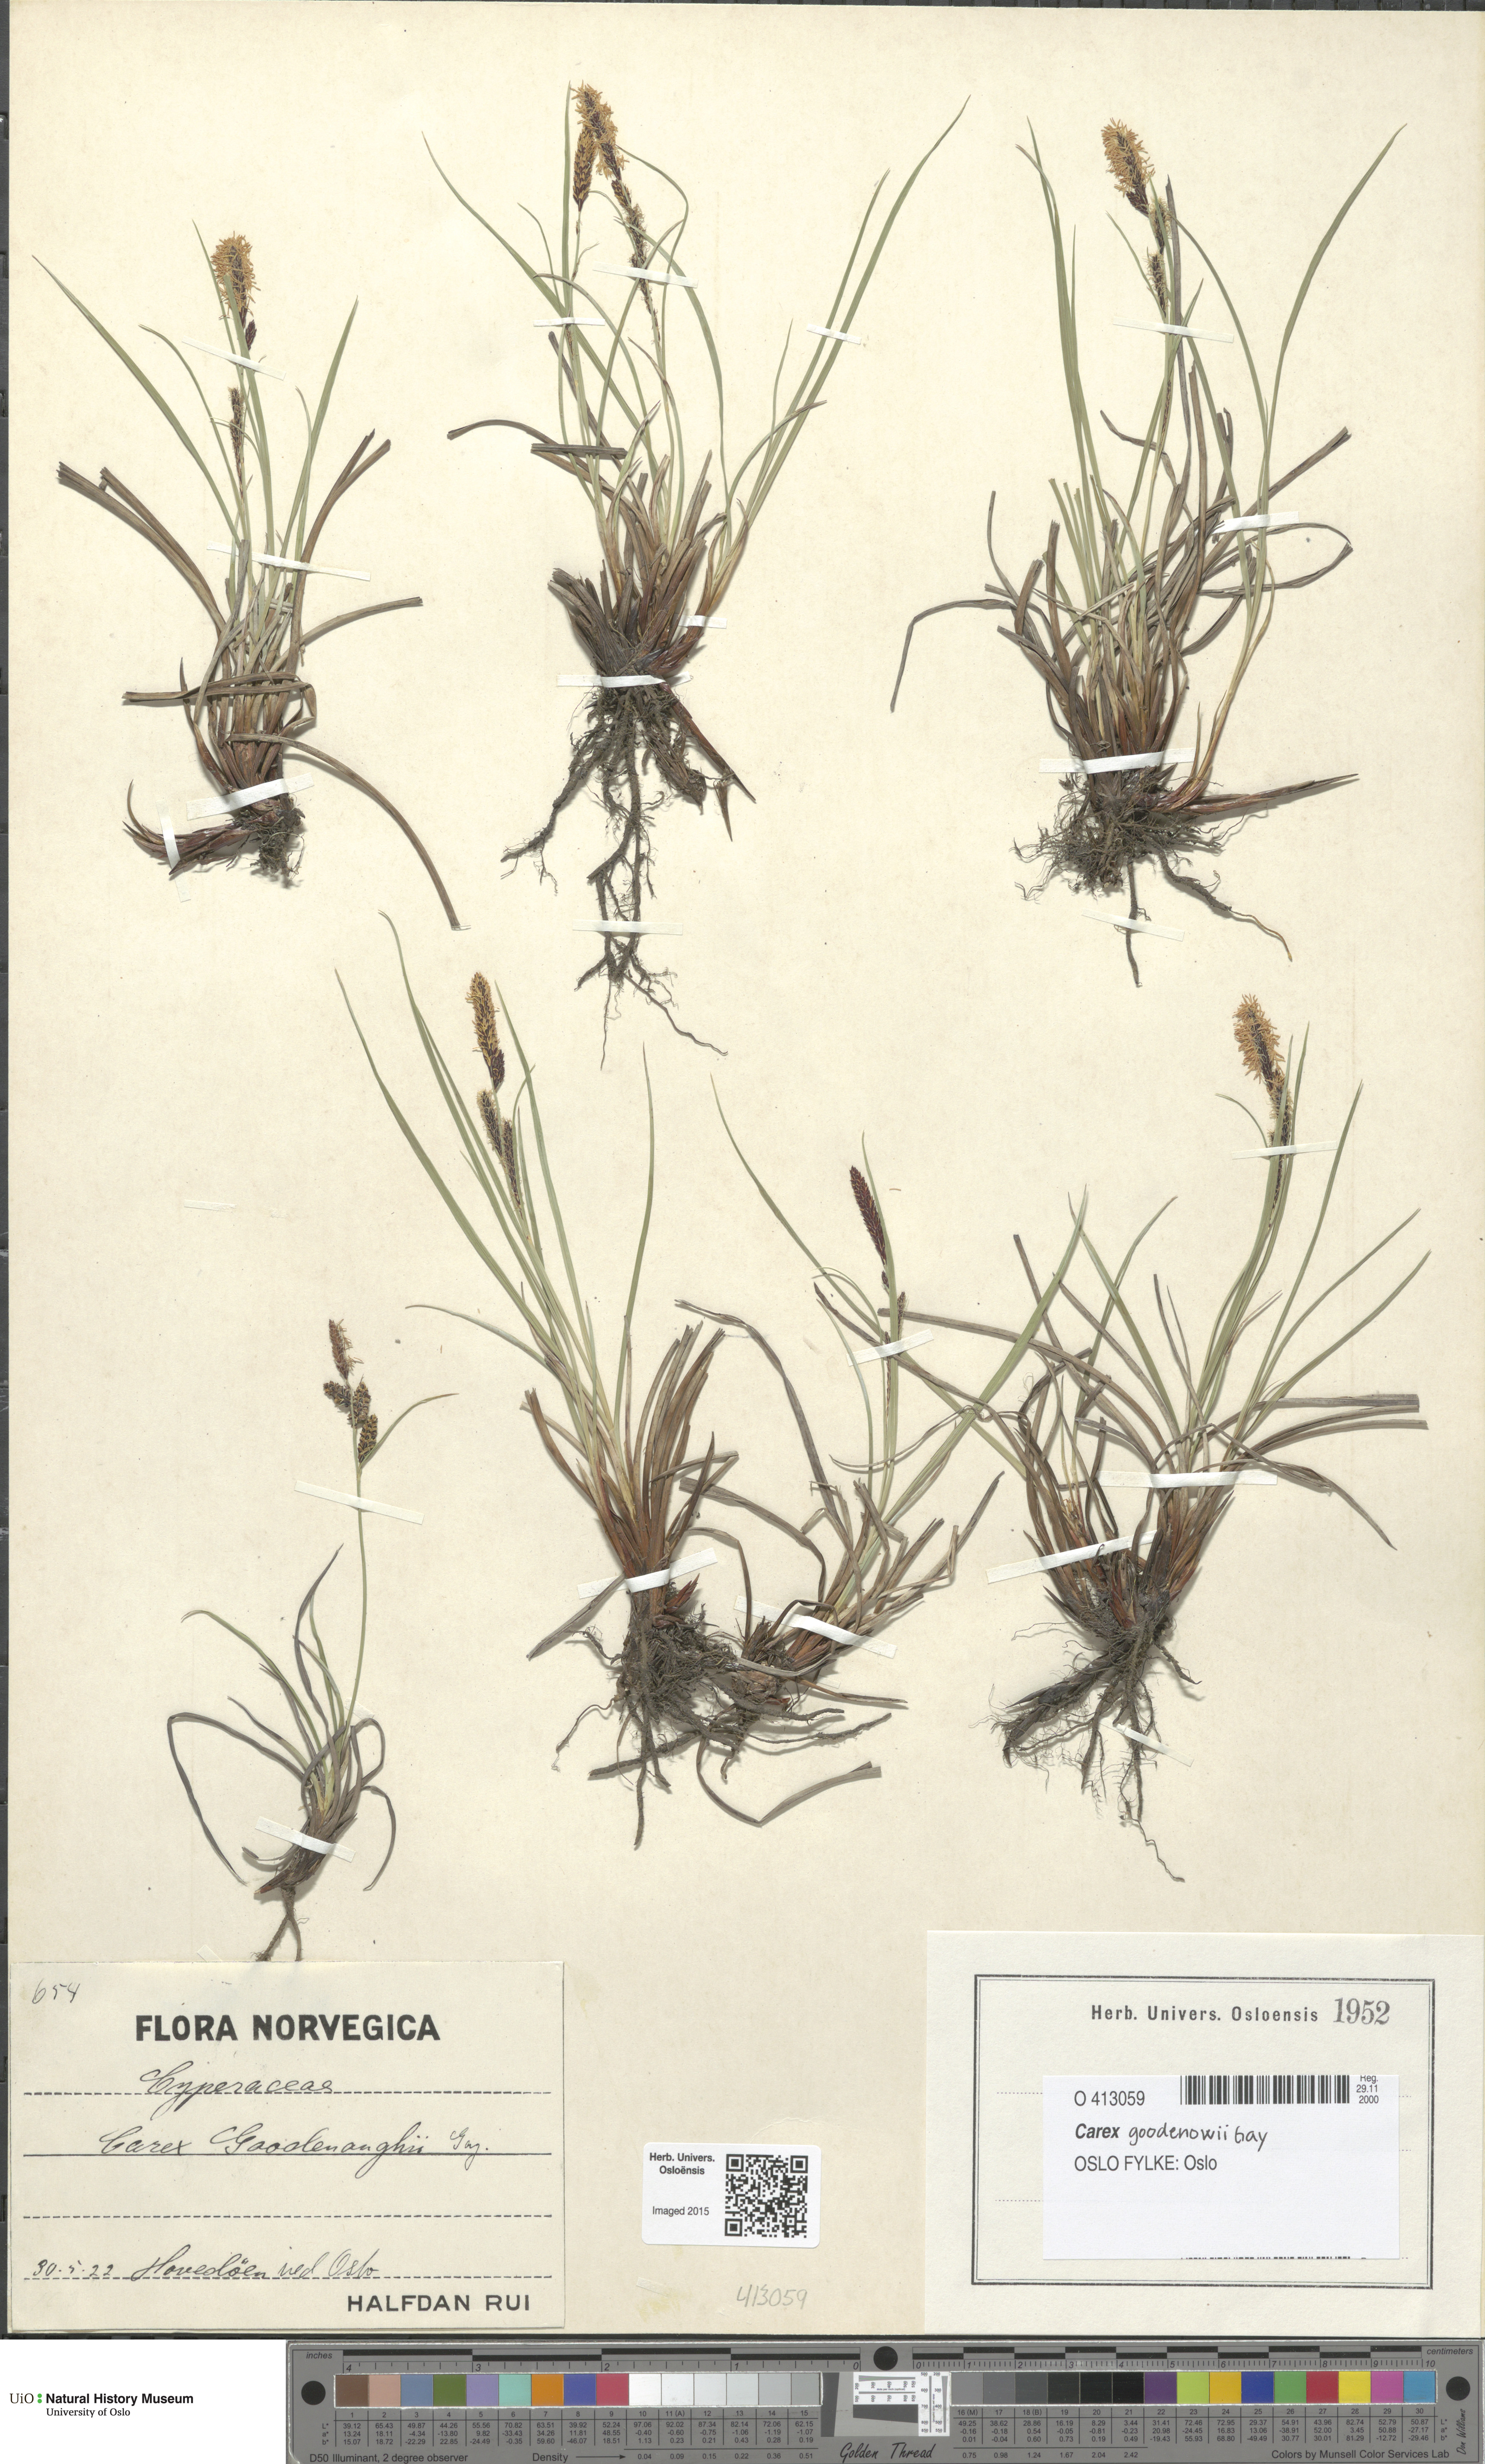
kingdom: Plantae
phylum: Tracheophyta
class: Liliopsida
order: Poales
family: Cyperaceae
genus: Carex
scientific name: Carex nigra
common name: Common sedge
